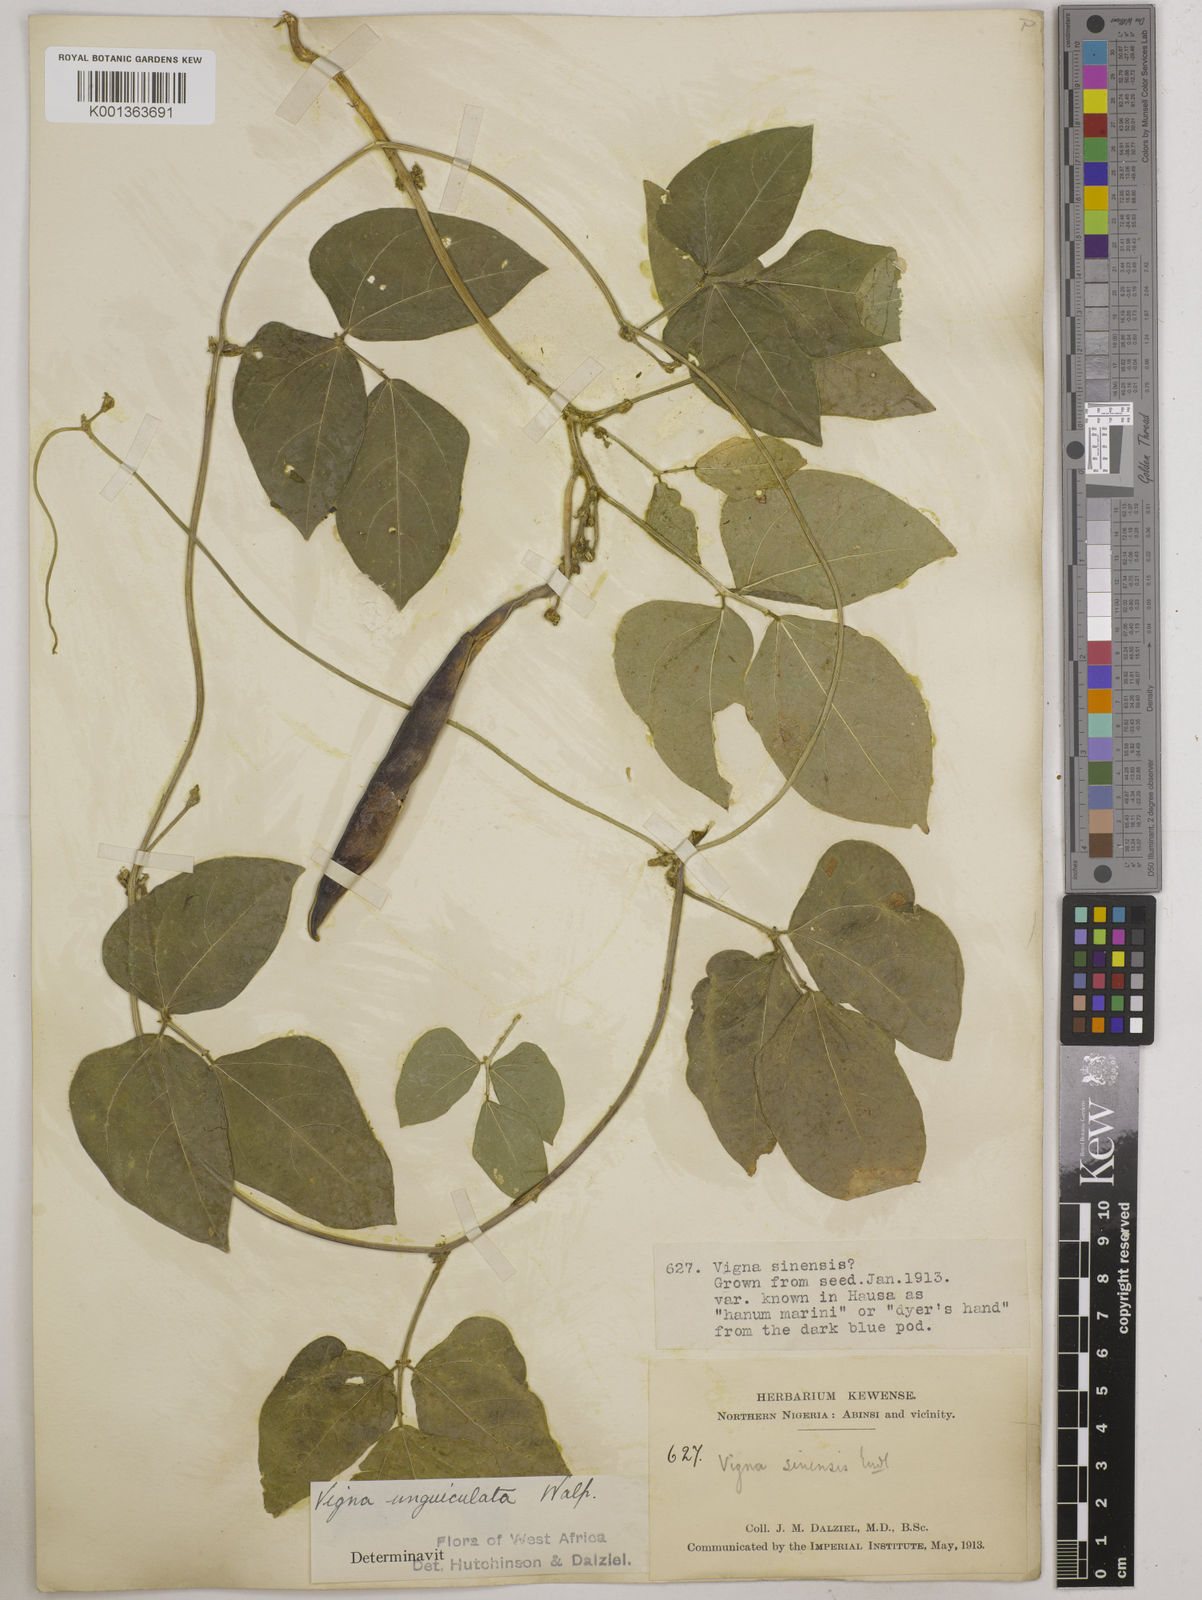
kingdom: Plantae
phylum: Tracheophyta
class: Magnoliopsida
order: Fabales
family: Fabaceae
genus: Vigna
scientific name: Vigna unguiculata
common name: Cowpea
